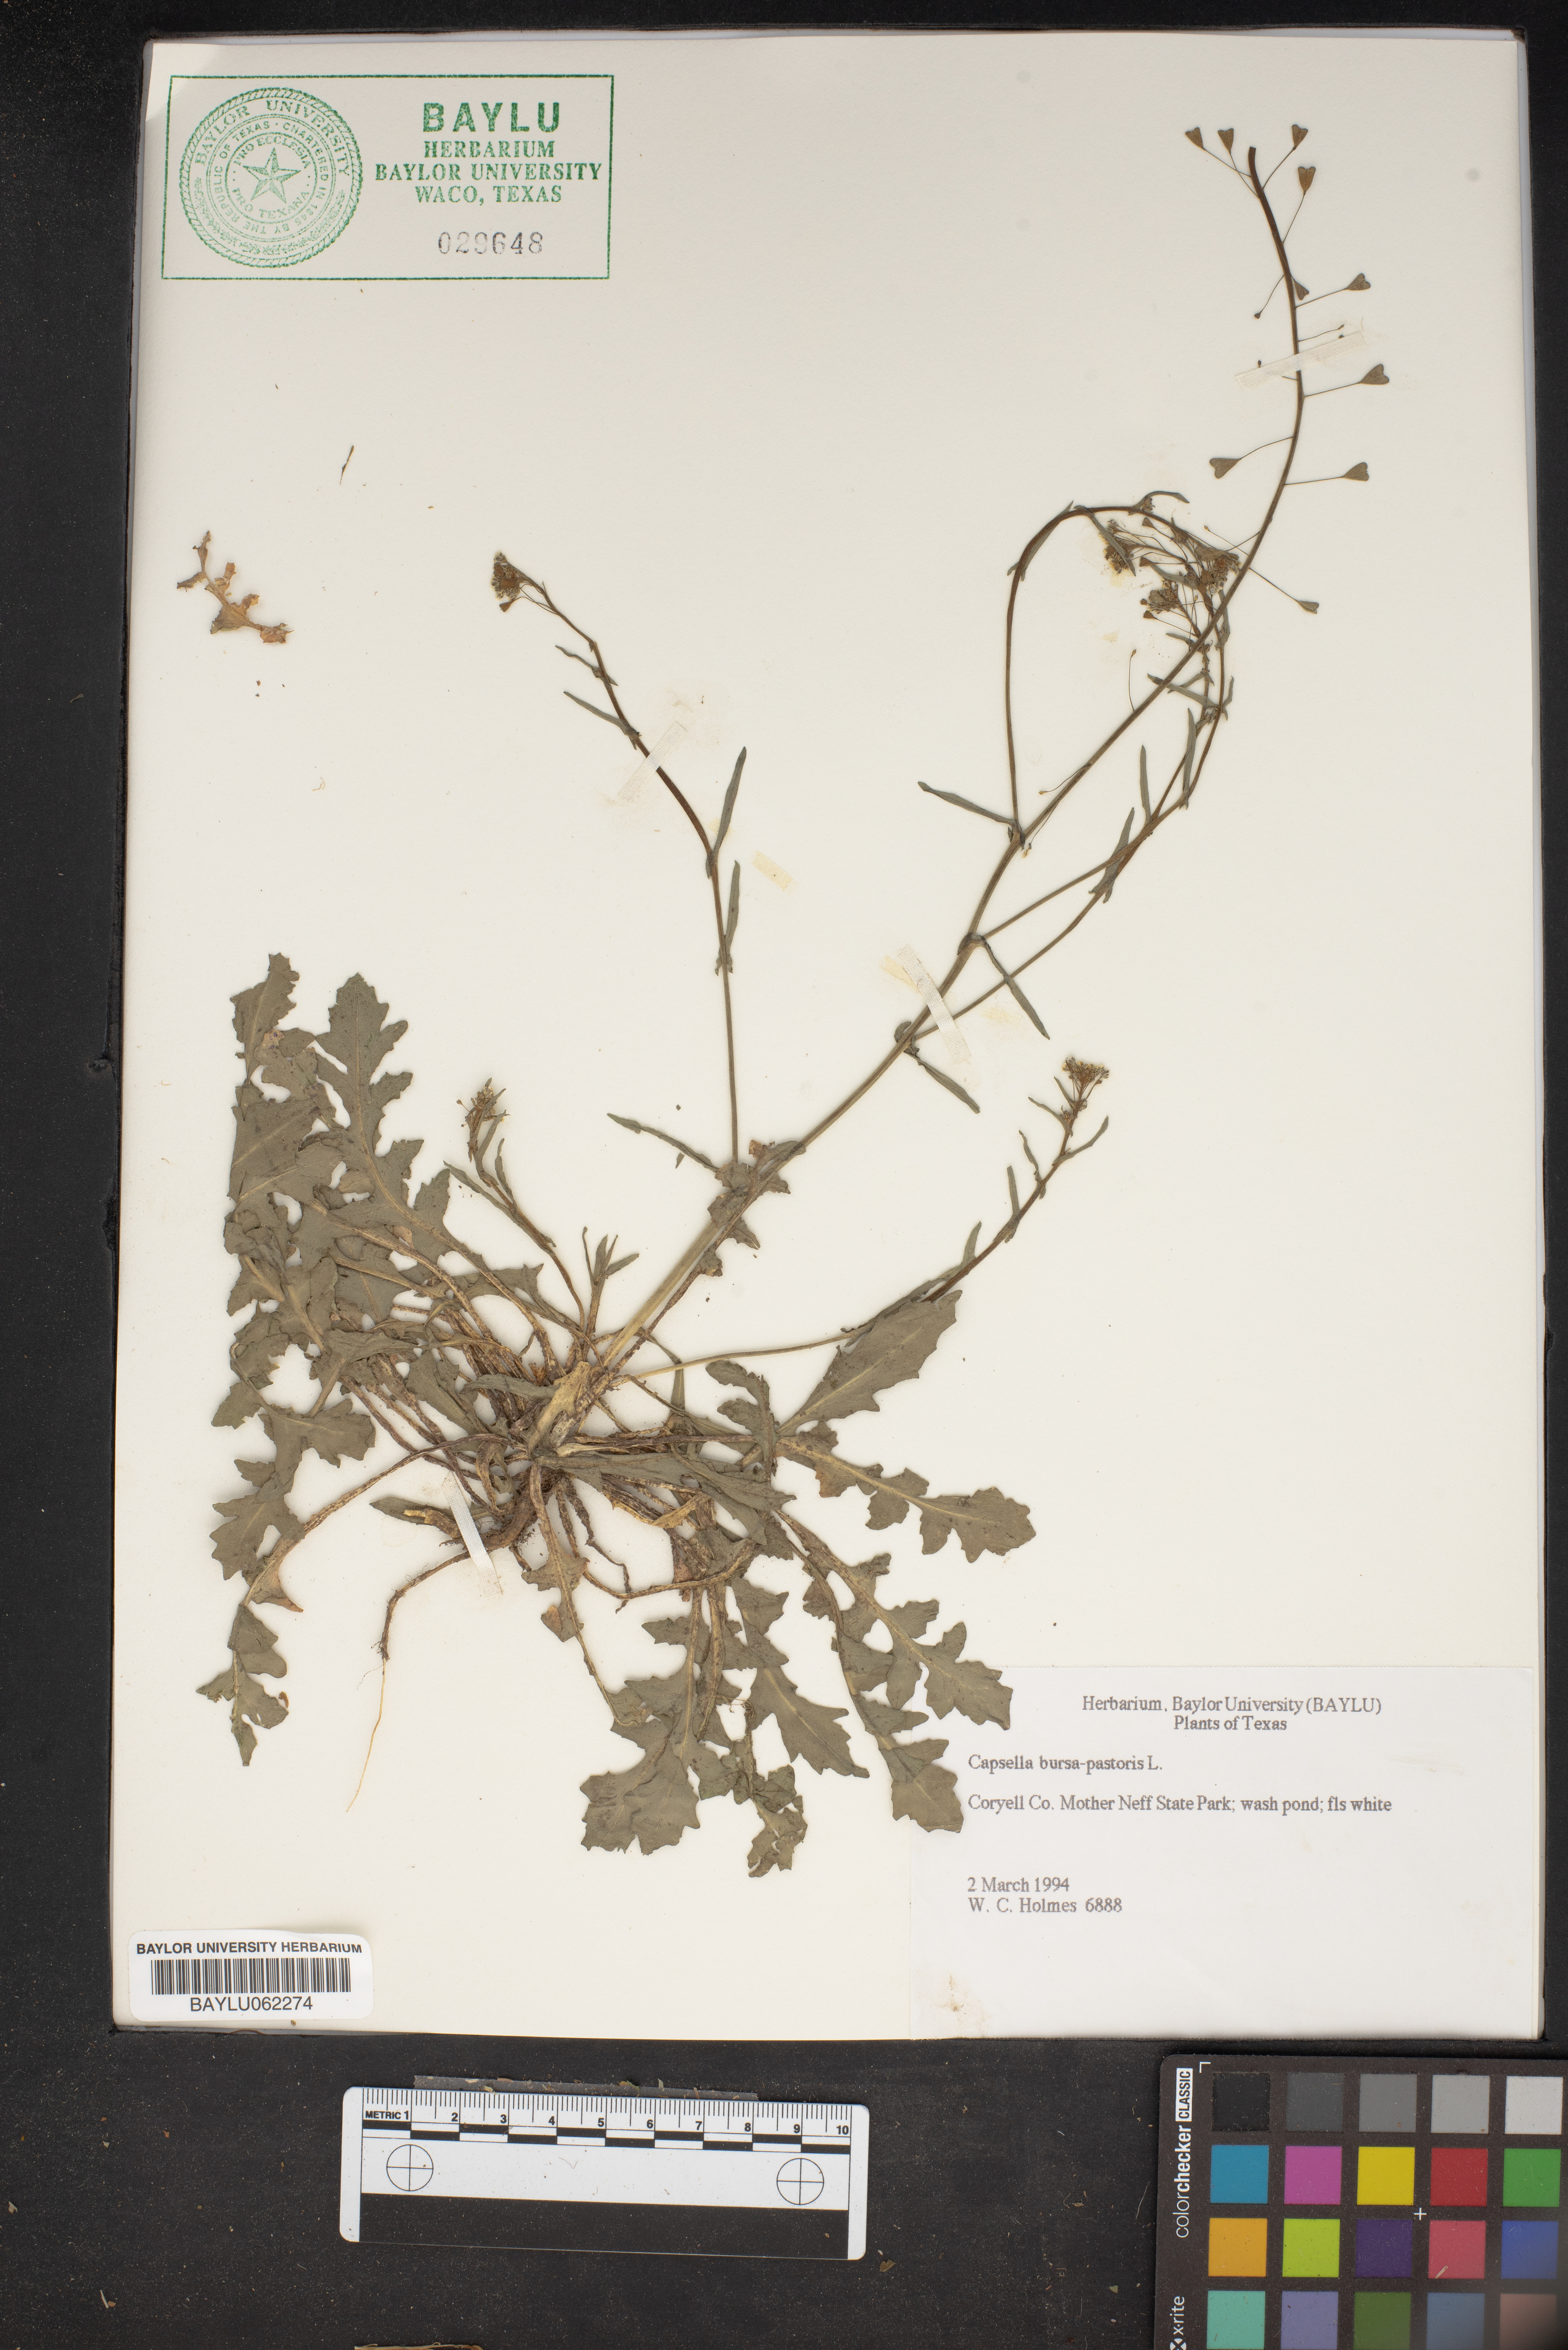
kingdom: Plantae
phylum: Tracheophyta
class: Magnoliopsida
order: Brassicales
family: Brassicaceae
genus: Capsella
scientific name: Capsella bursa-pastoris
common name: Shepherd's purse
